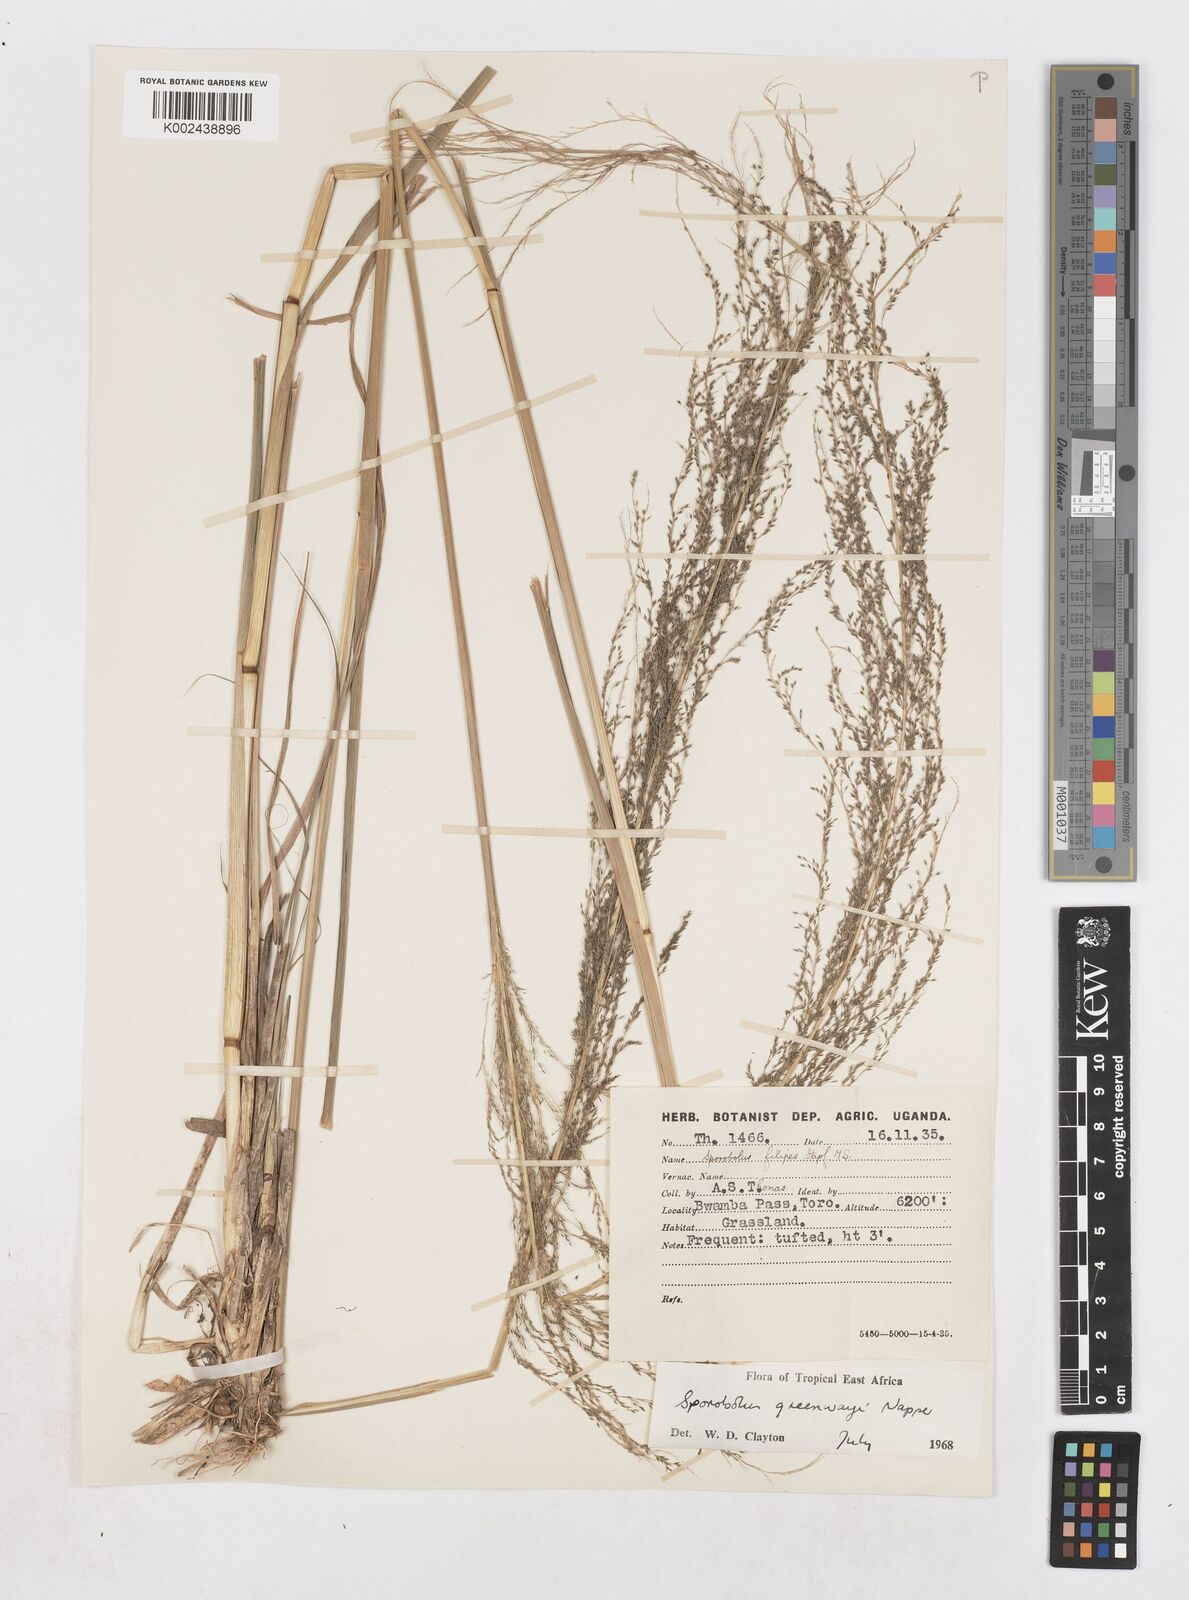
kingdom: Plantae
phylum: Tracheophyta
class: Liliopsida
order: Poales
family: Poaceae
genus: Sporobolus
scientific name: Sporobolus macranthelus
